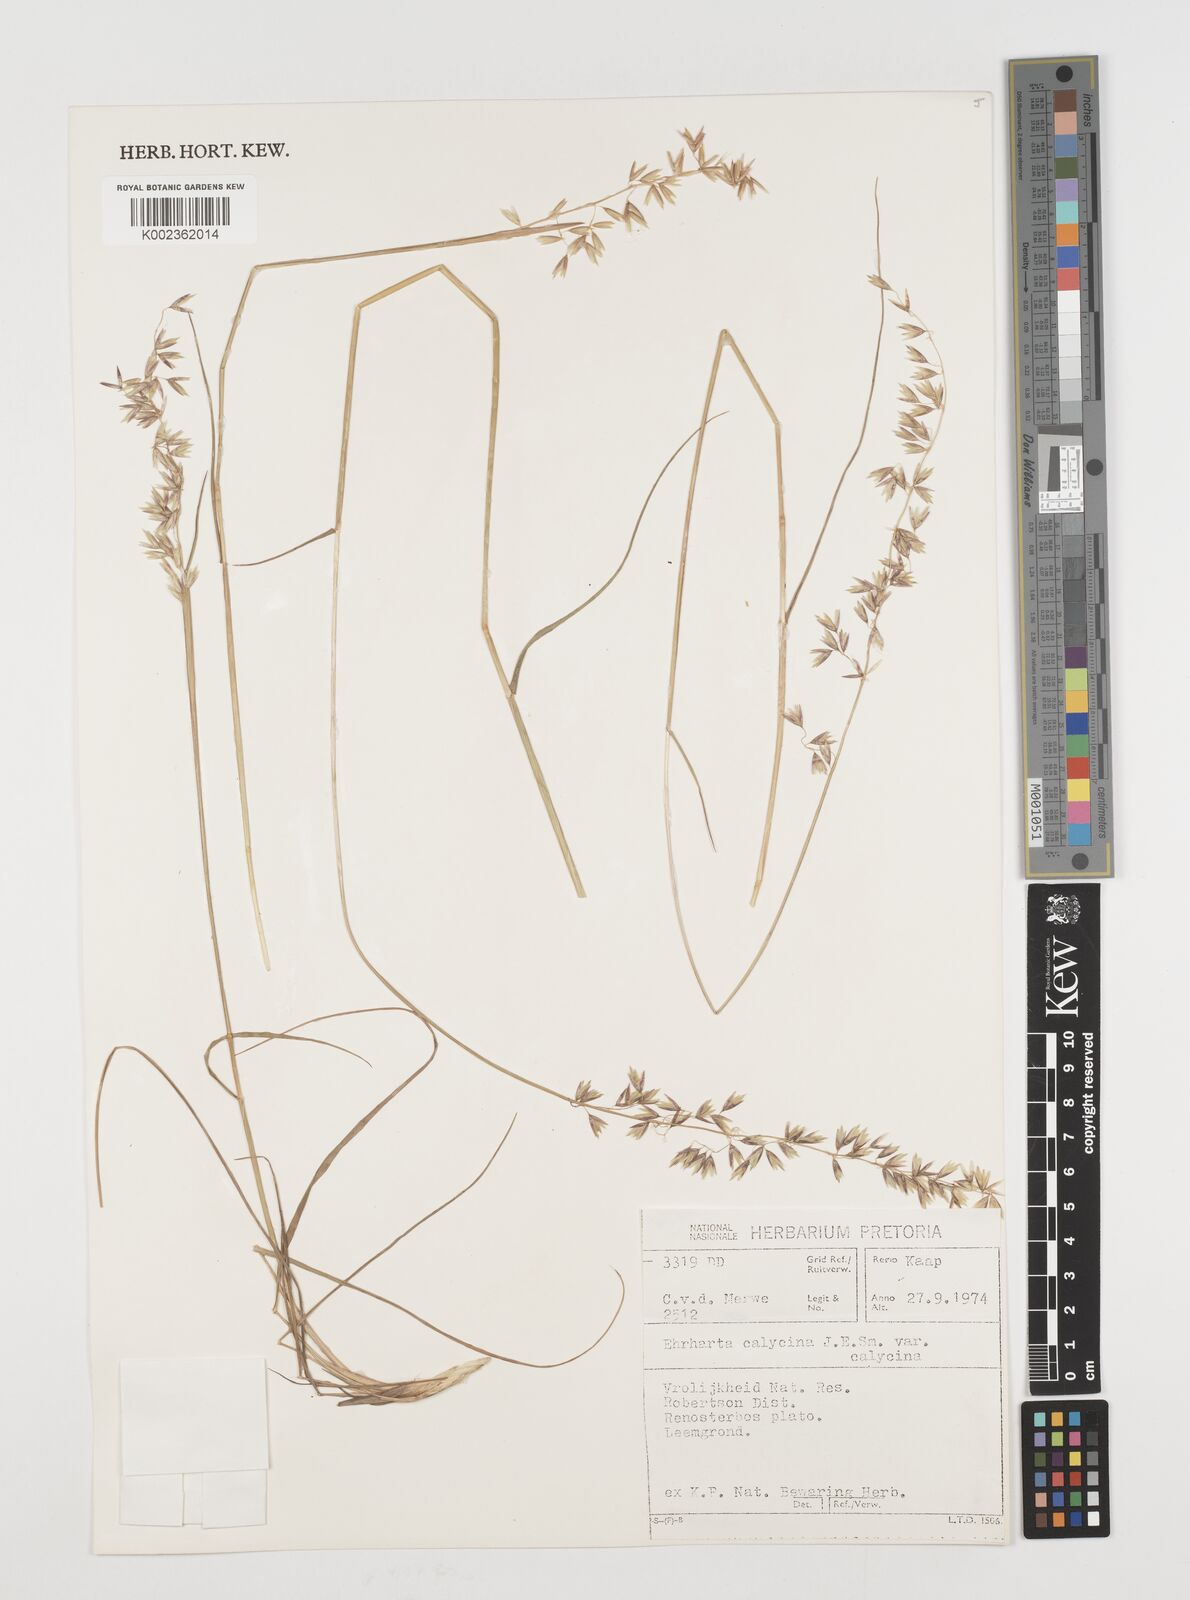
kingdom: Plantae
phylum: Tracheophyta
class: Liliopsida
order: Poales
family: Poaceae
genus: Ehrharta
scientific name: Ehrharta calycina
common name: Perennial veldtgrass
